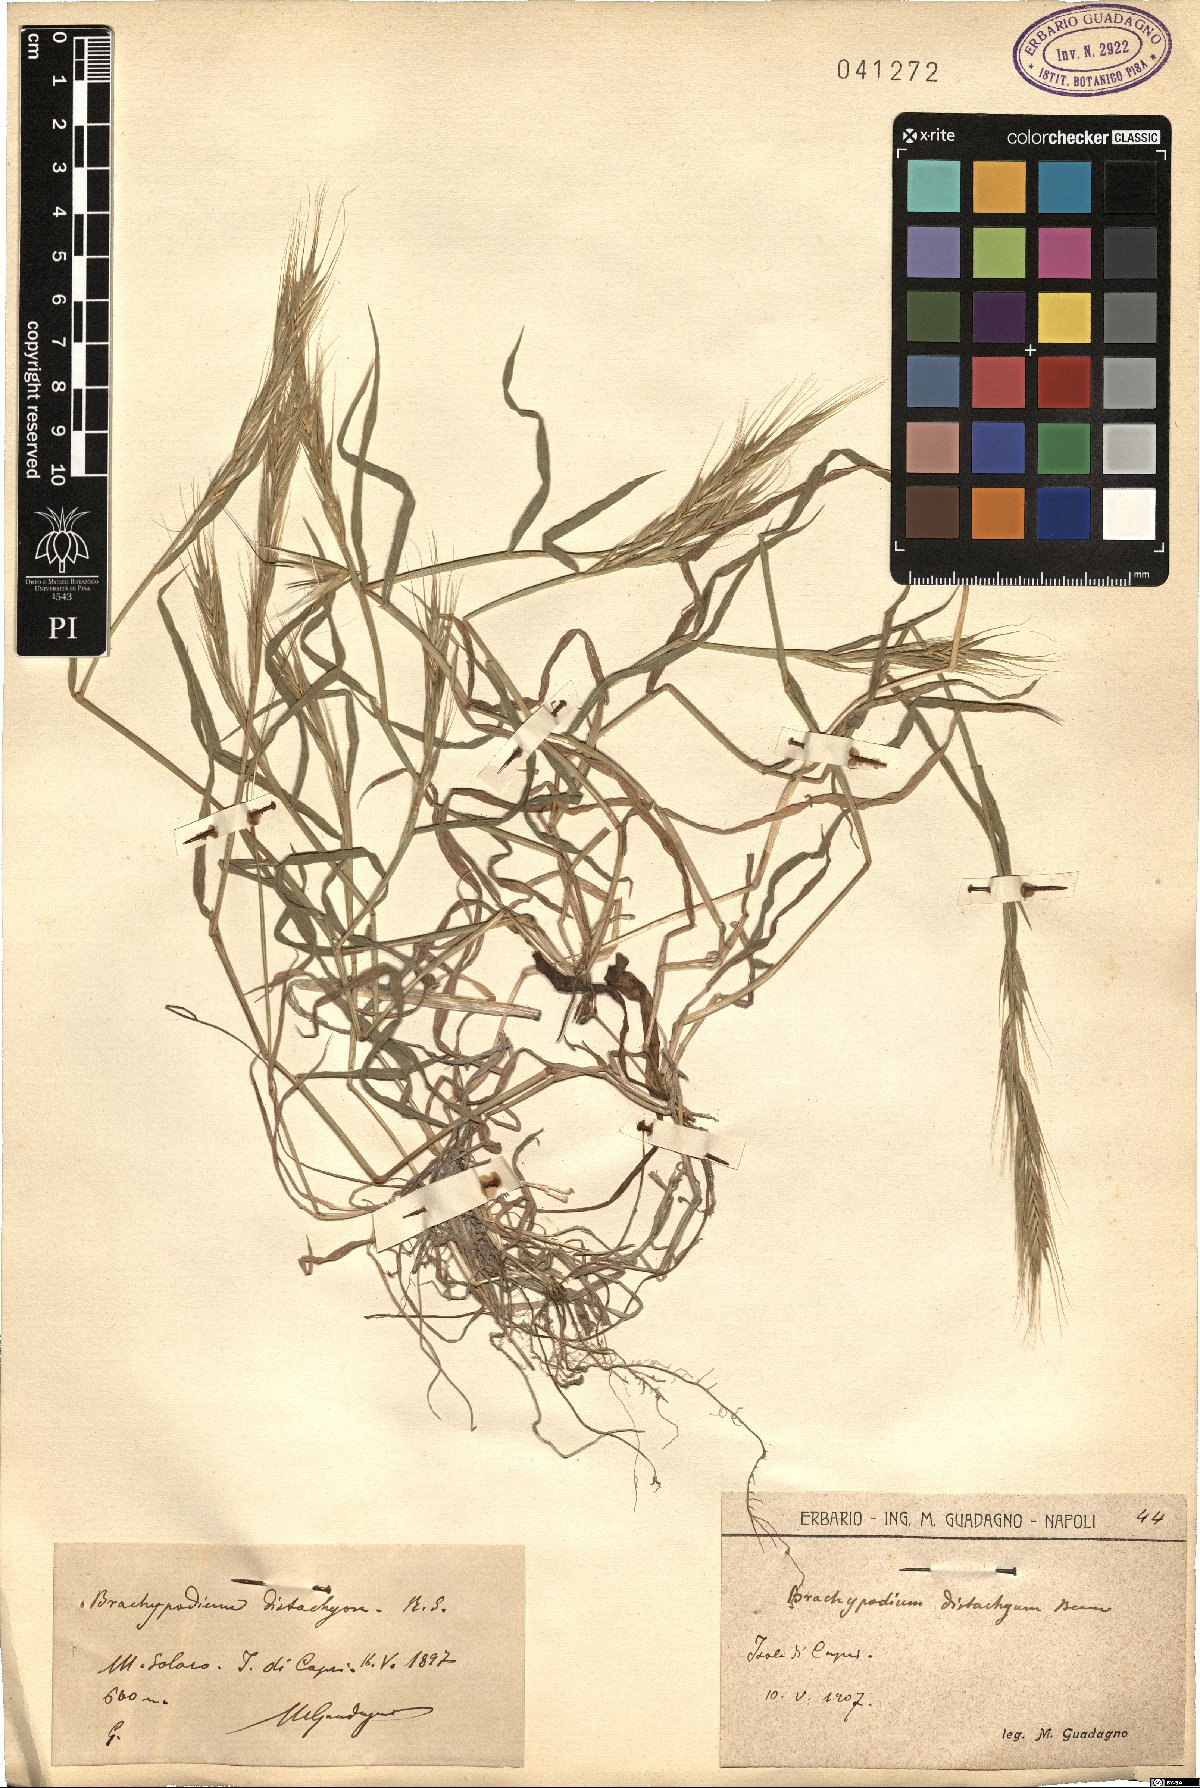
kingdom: Plantae
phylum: Tracheophyta
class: Liliopsida
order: Poales
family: Poaceae
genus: Brachypodium
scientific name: Brachypodium distachyon
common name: Stiff brome
